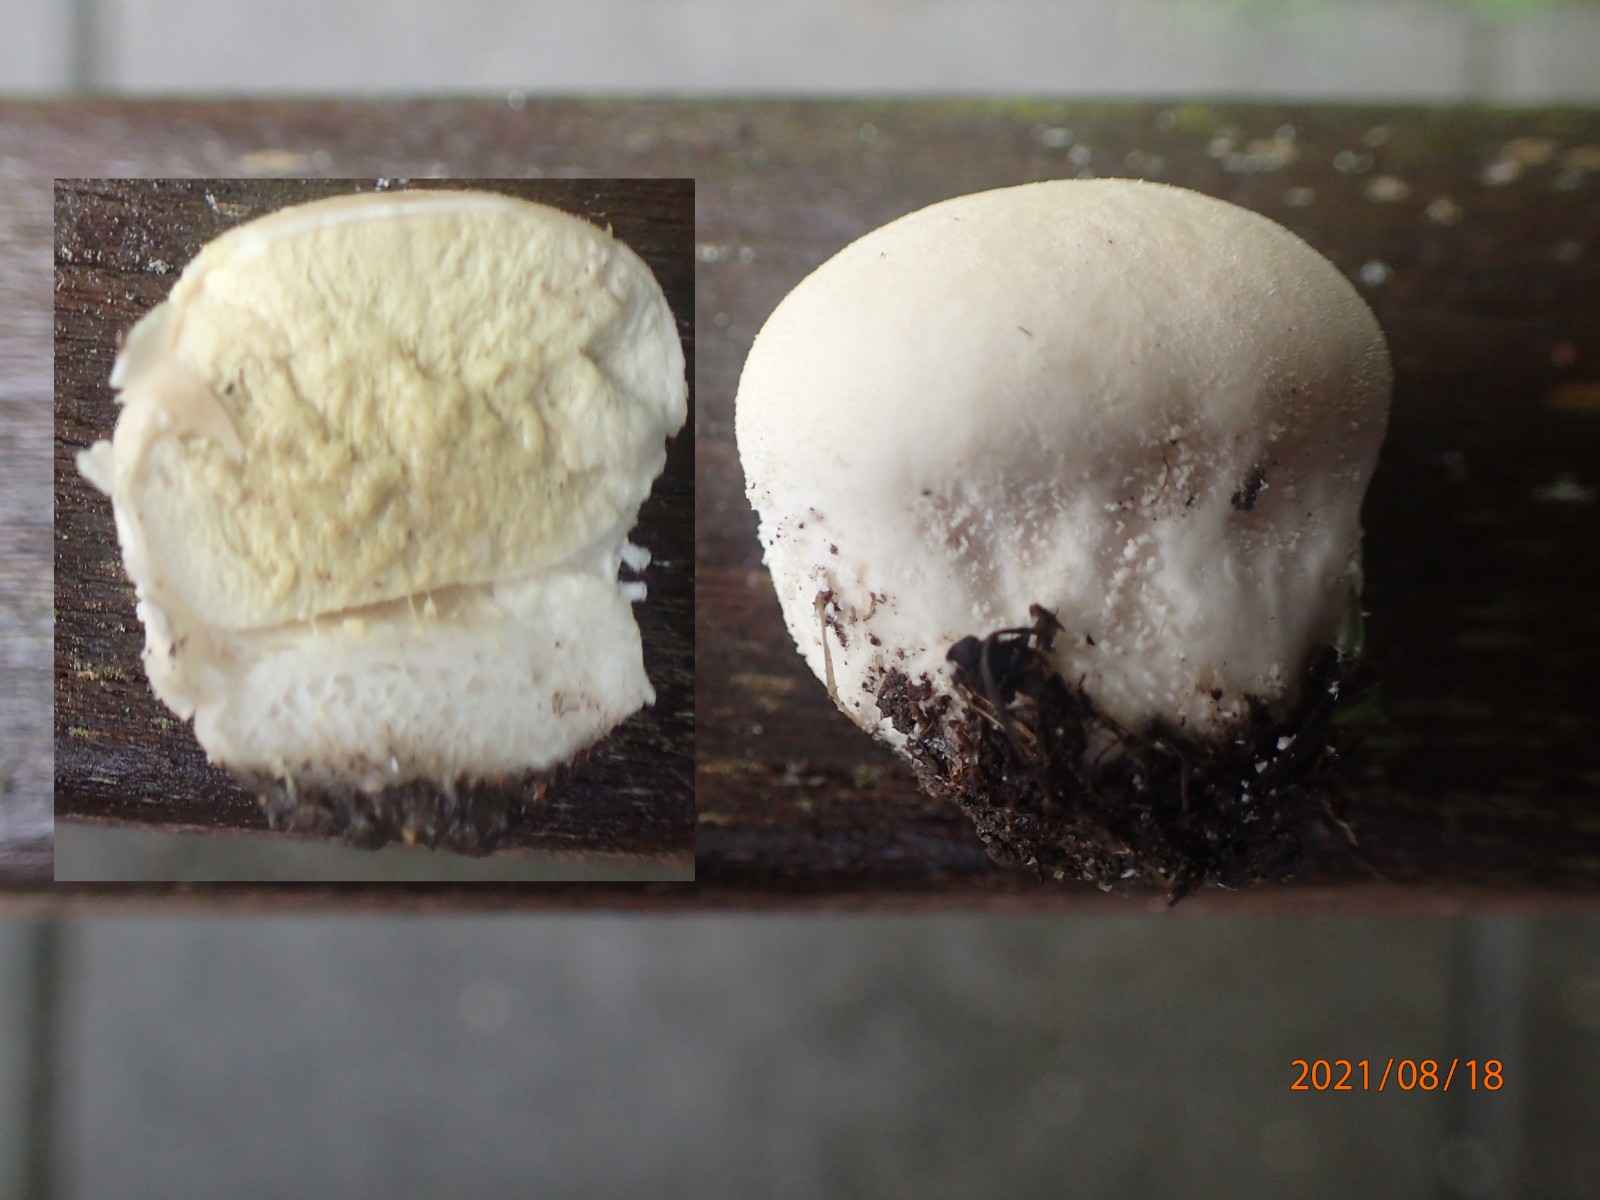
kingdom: Fungi
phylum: Basidiomycota
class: Agaricomycetes
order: Agaricales
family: Lycoperdaceae
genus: Lycoperdon
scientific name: Lycoperdon pratense
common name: flad støvbold
